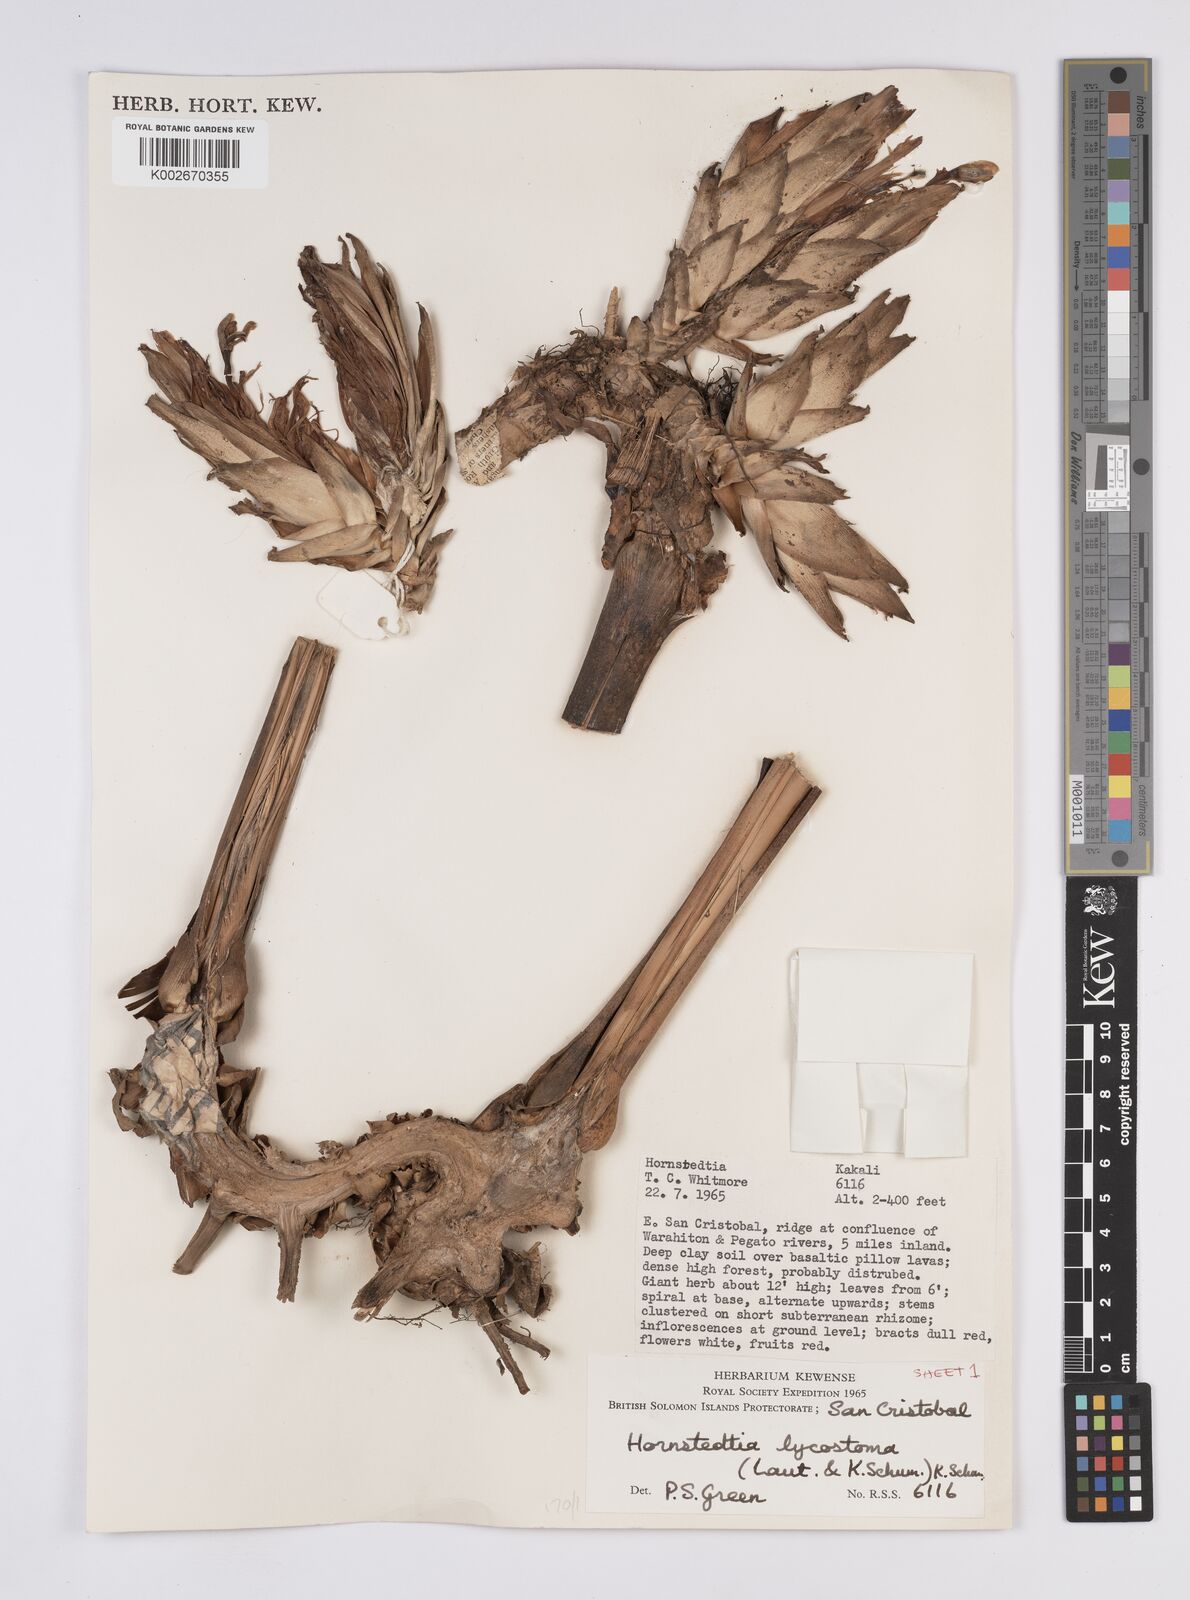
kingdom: Plantae
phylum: Tracheophyta
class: Liliopsida
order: Zingiberales
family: Zingiberaceae
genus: Hornstedtia
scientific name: Hornstedtia scottiana
